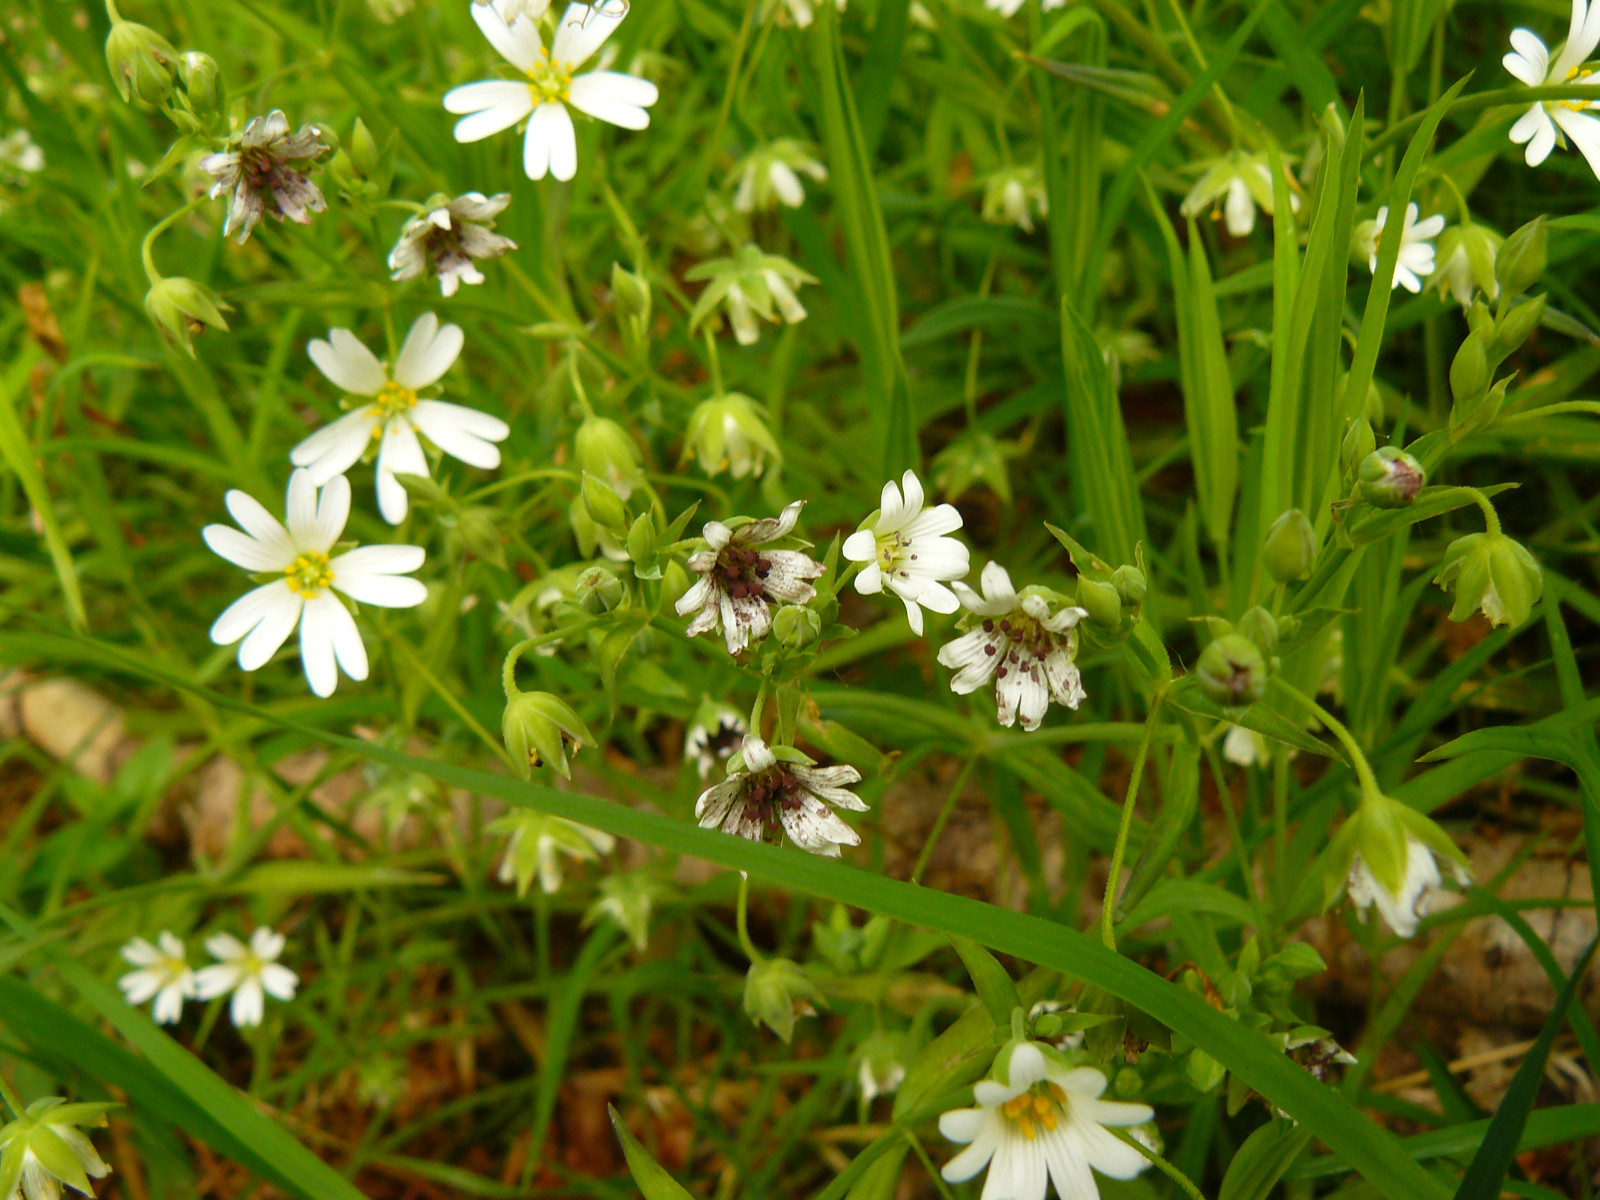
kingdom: Fungi
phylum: Basidiomycota
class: Microbotryomycetes
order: Microbotryales
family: Microbotryaceae
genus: Microbotryum
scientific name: Microbotryum stellariae
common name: fladstjerne-støvbladrust
